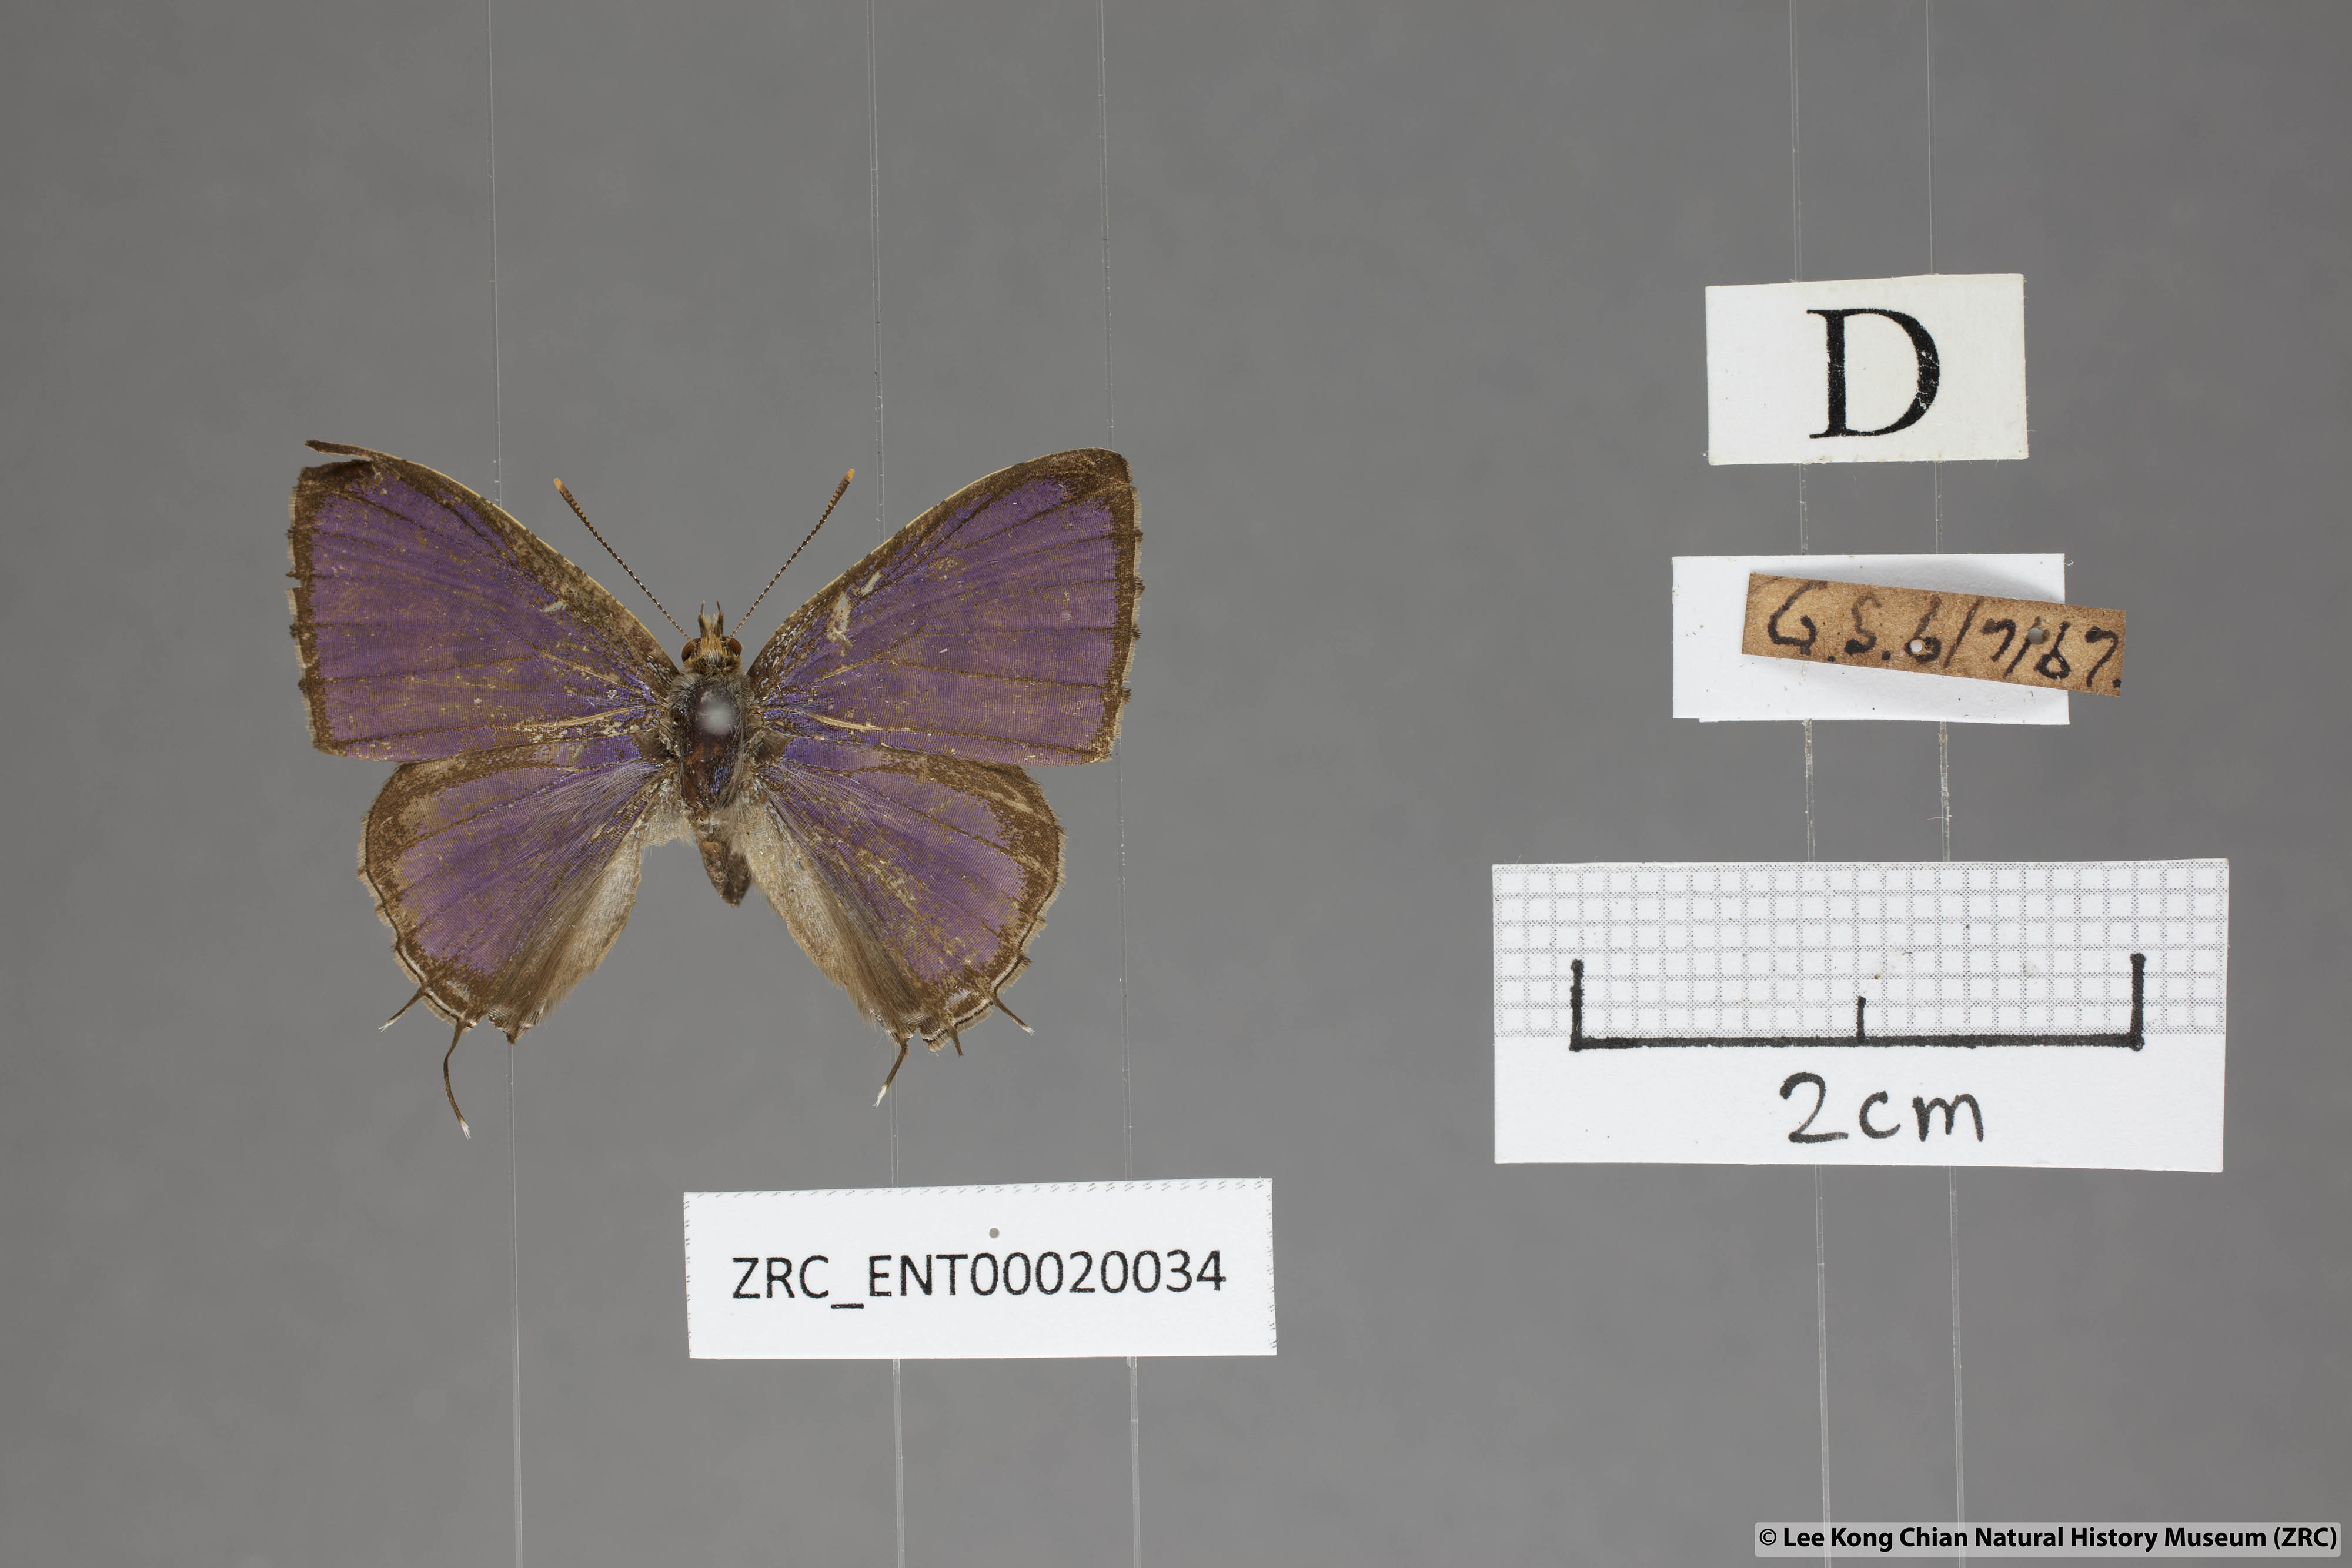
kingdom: Animalia
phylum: Arthropoda
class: Insecta
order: Lepidoptera
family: Lycaenidae
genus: Catapaecilma
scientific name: Catapaecilma major
